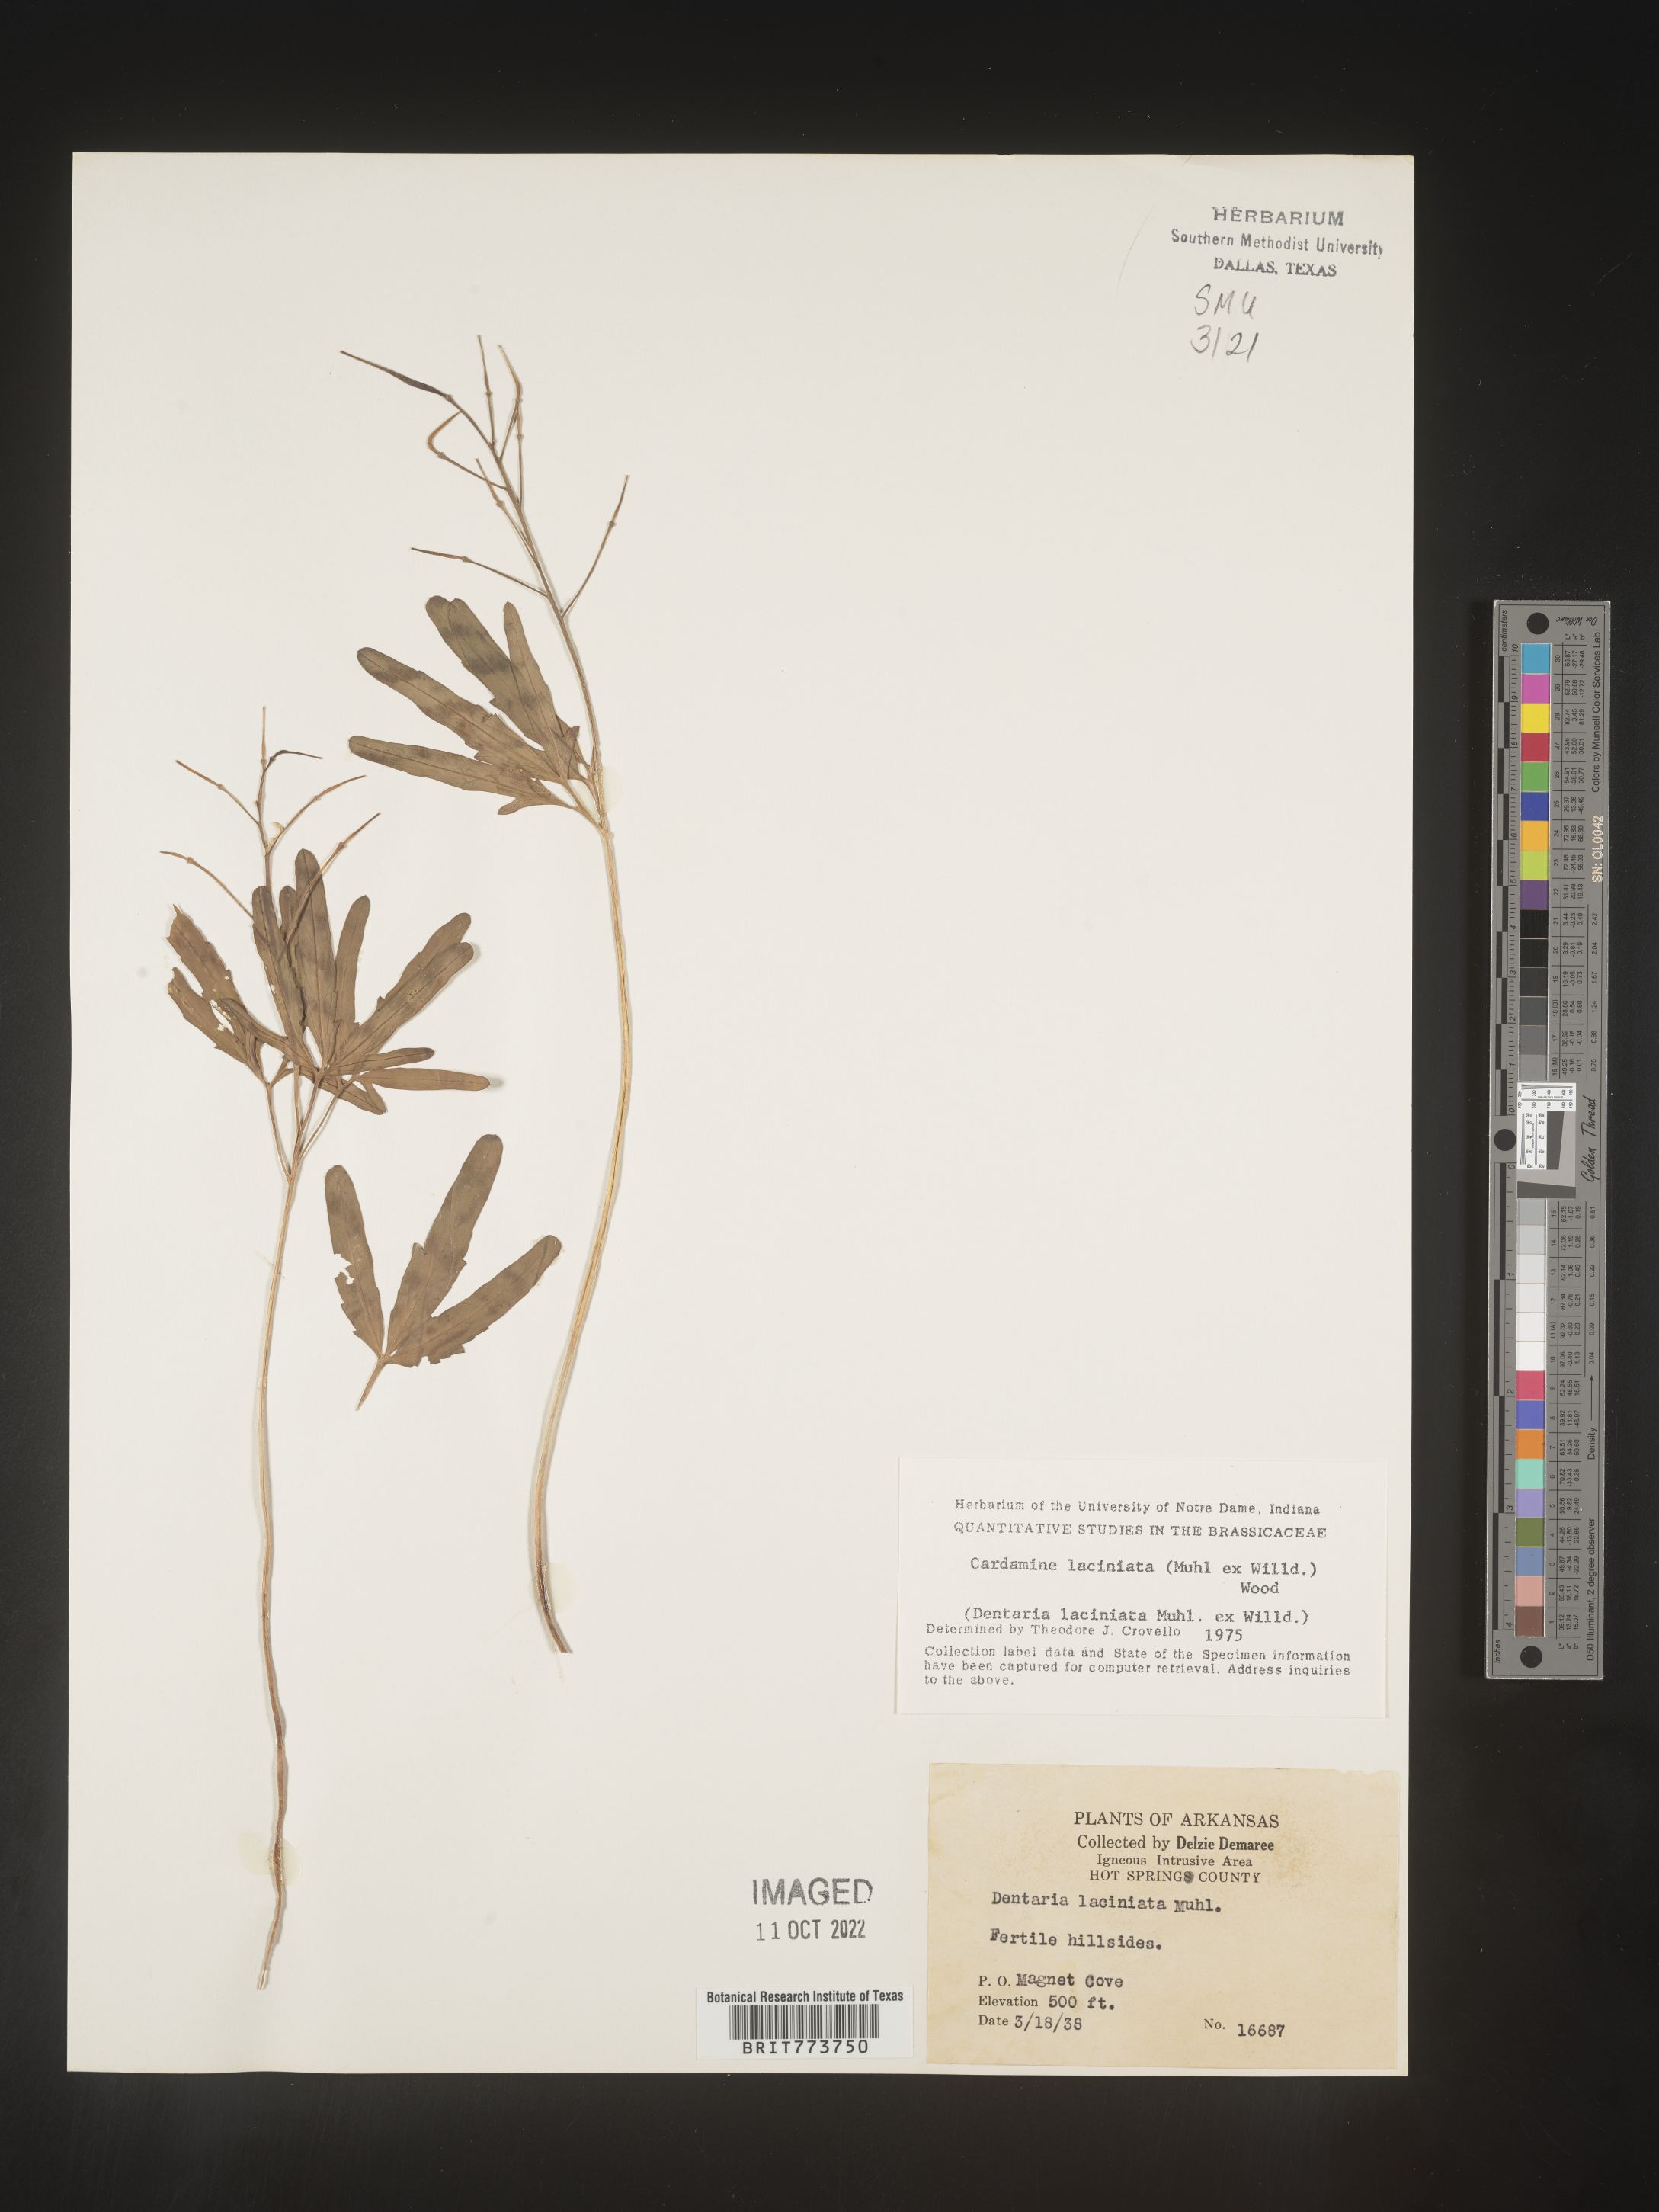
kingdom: Plantae
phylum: Tracheophyta
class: Magnoliopsida
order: Brassicales
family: Brassicaceae
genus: Rorippa
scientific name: Rorippa laciniata
